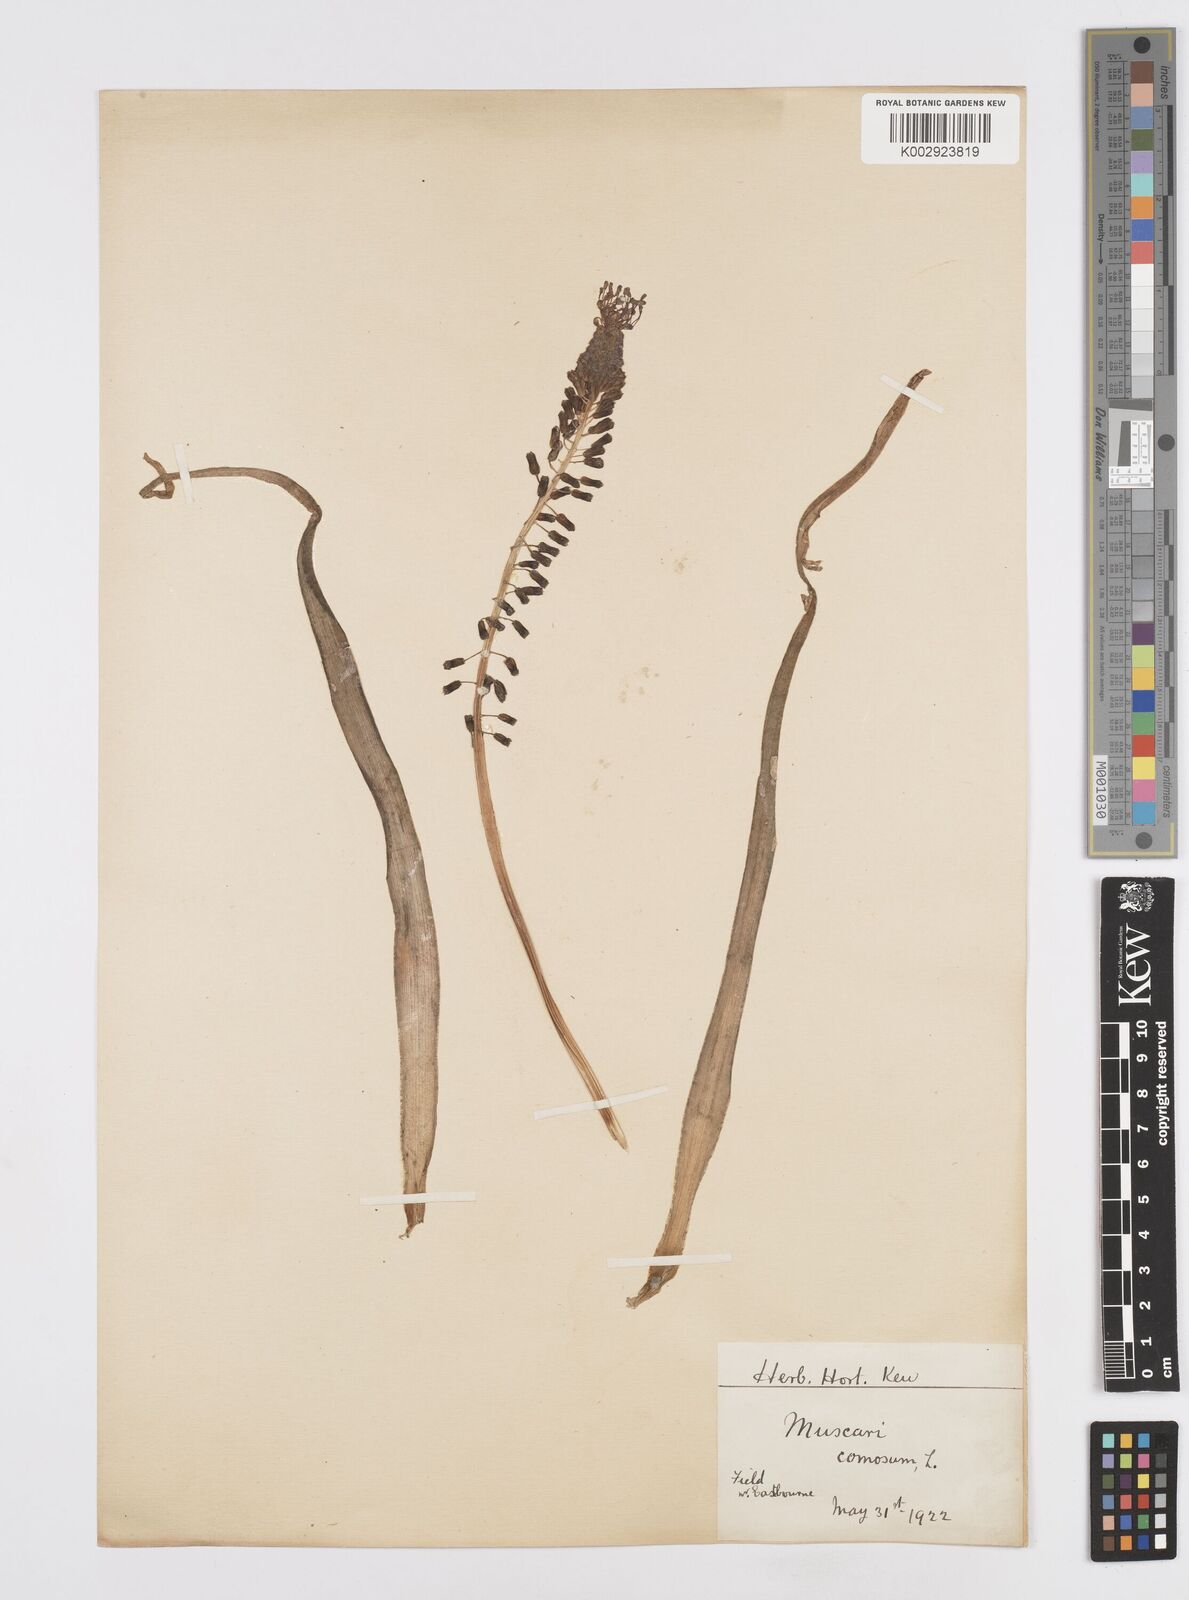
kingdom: Plantae
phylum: Tracheophyta
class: Liliopsida
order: Asparagales
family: Asparagaceae
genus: Muscari
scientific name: Muscari comosum
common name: Tassel hyacinth
